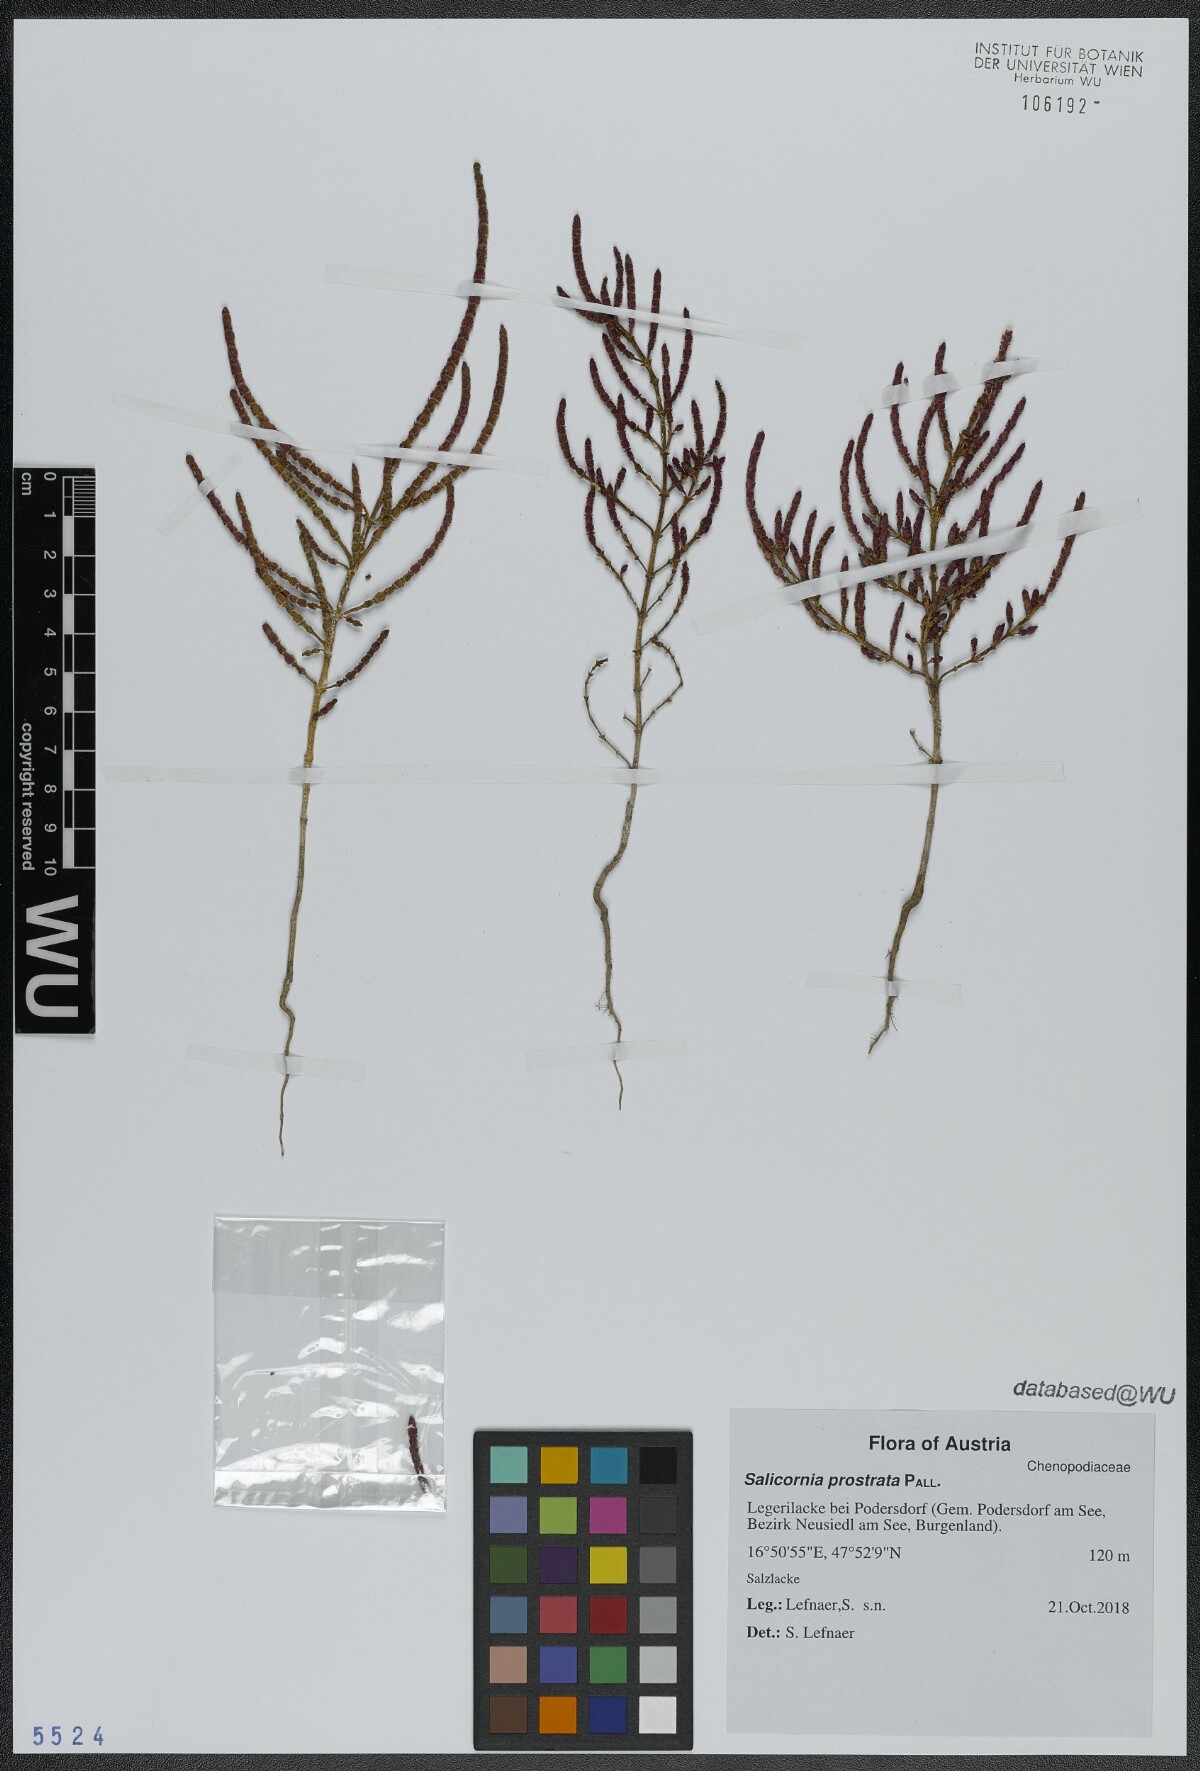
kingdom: Plantae
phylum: Tracheophyta
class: Magnoliopsida
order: Caryophyllales
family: Amaranthaceae
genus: Salicornia
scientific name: Salicornia perennans
